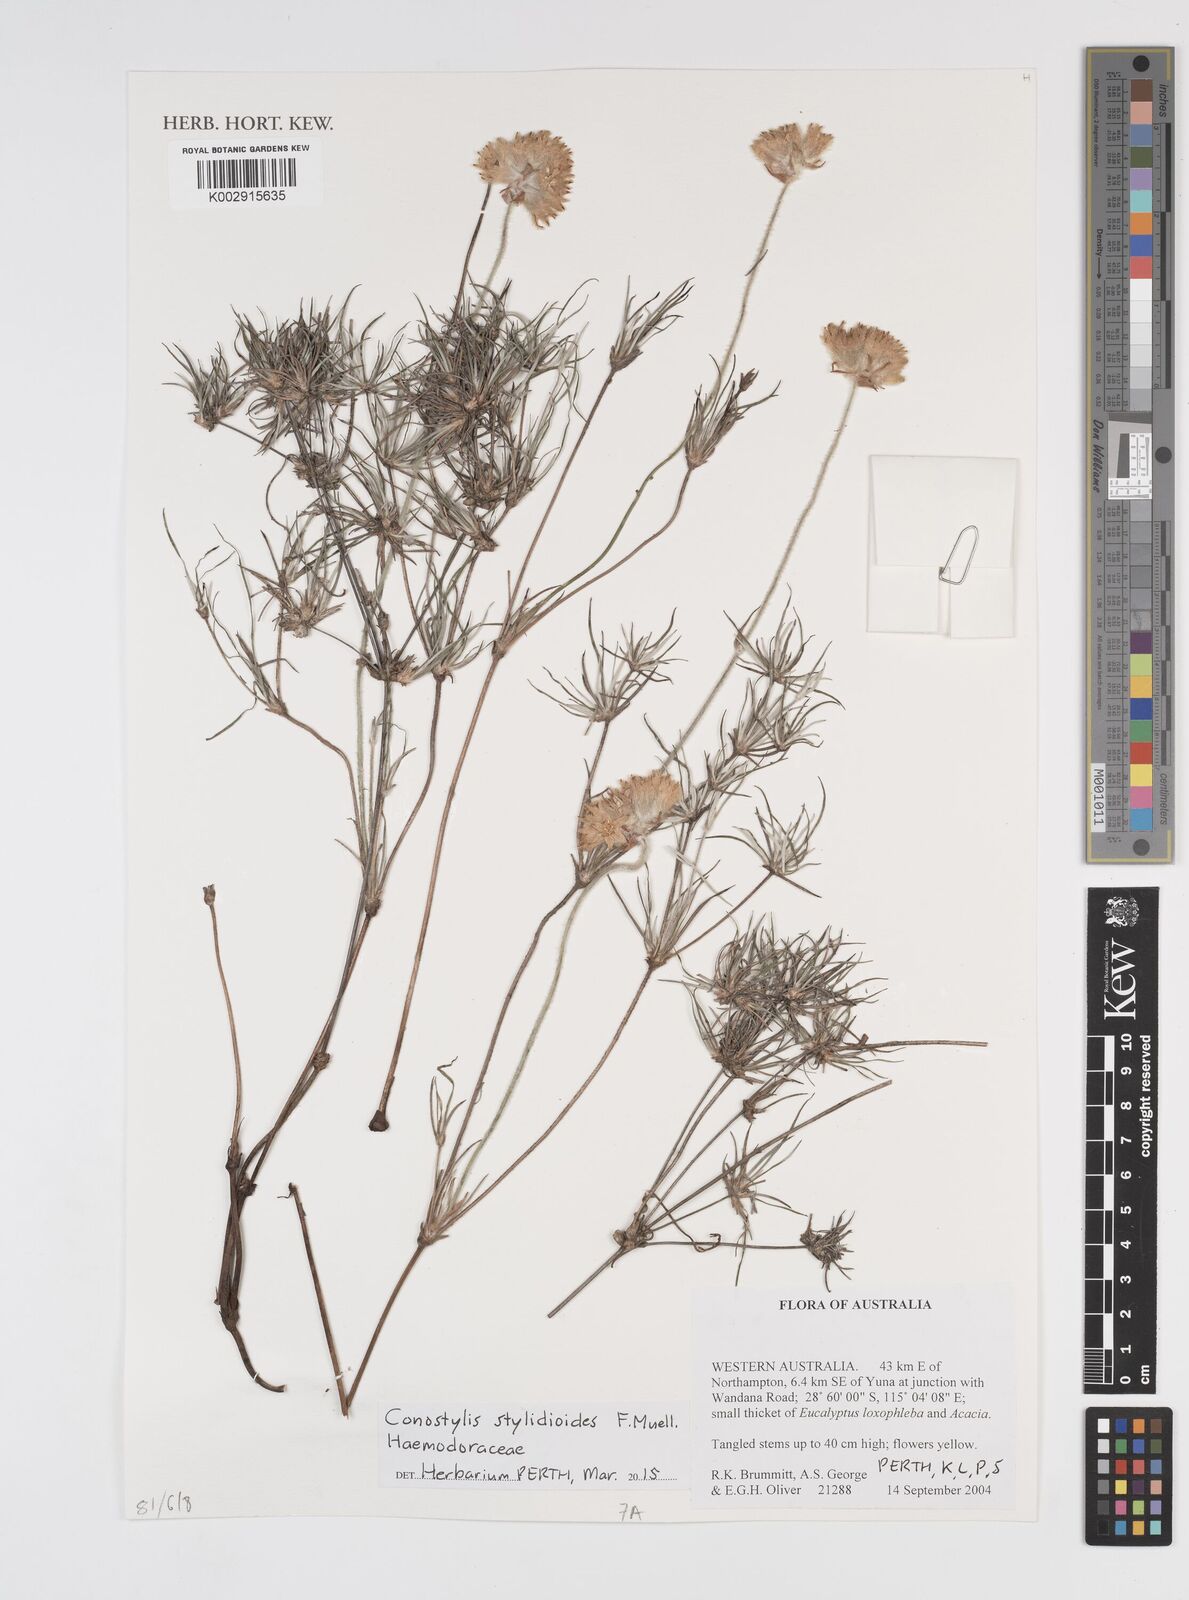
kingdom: Plantae
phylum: Tracheophyta
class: Liliopsida
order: Commelinales
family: Haemodoraceae
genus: Conostylis
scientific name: Conostylis stylidioides
